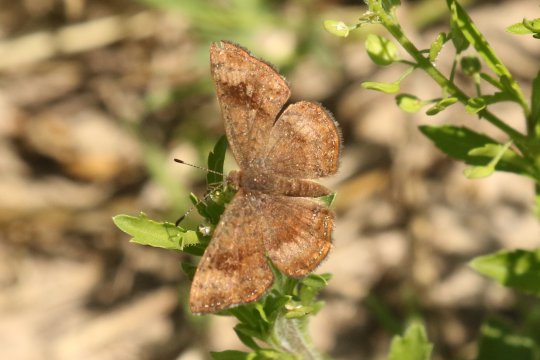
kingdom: Animalia
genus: Calephelis
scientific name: Calephelis nemesis
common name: Fatal Metalmark
